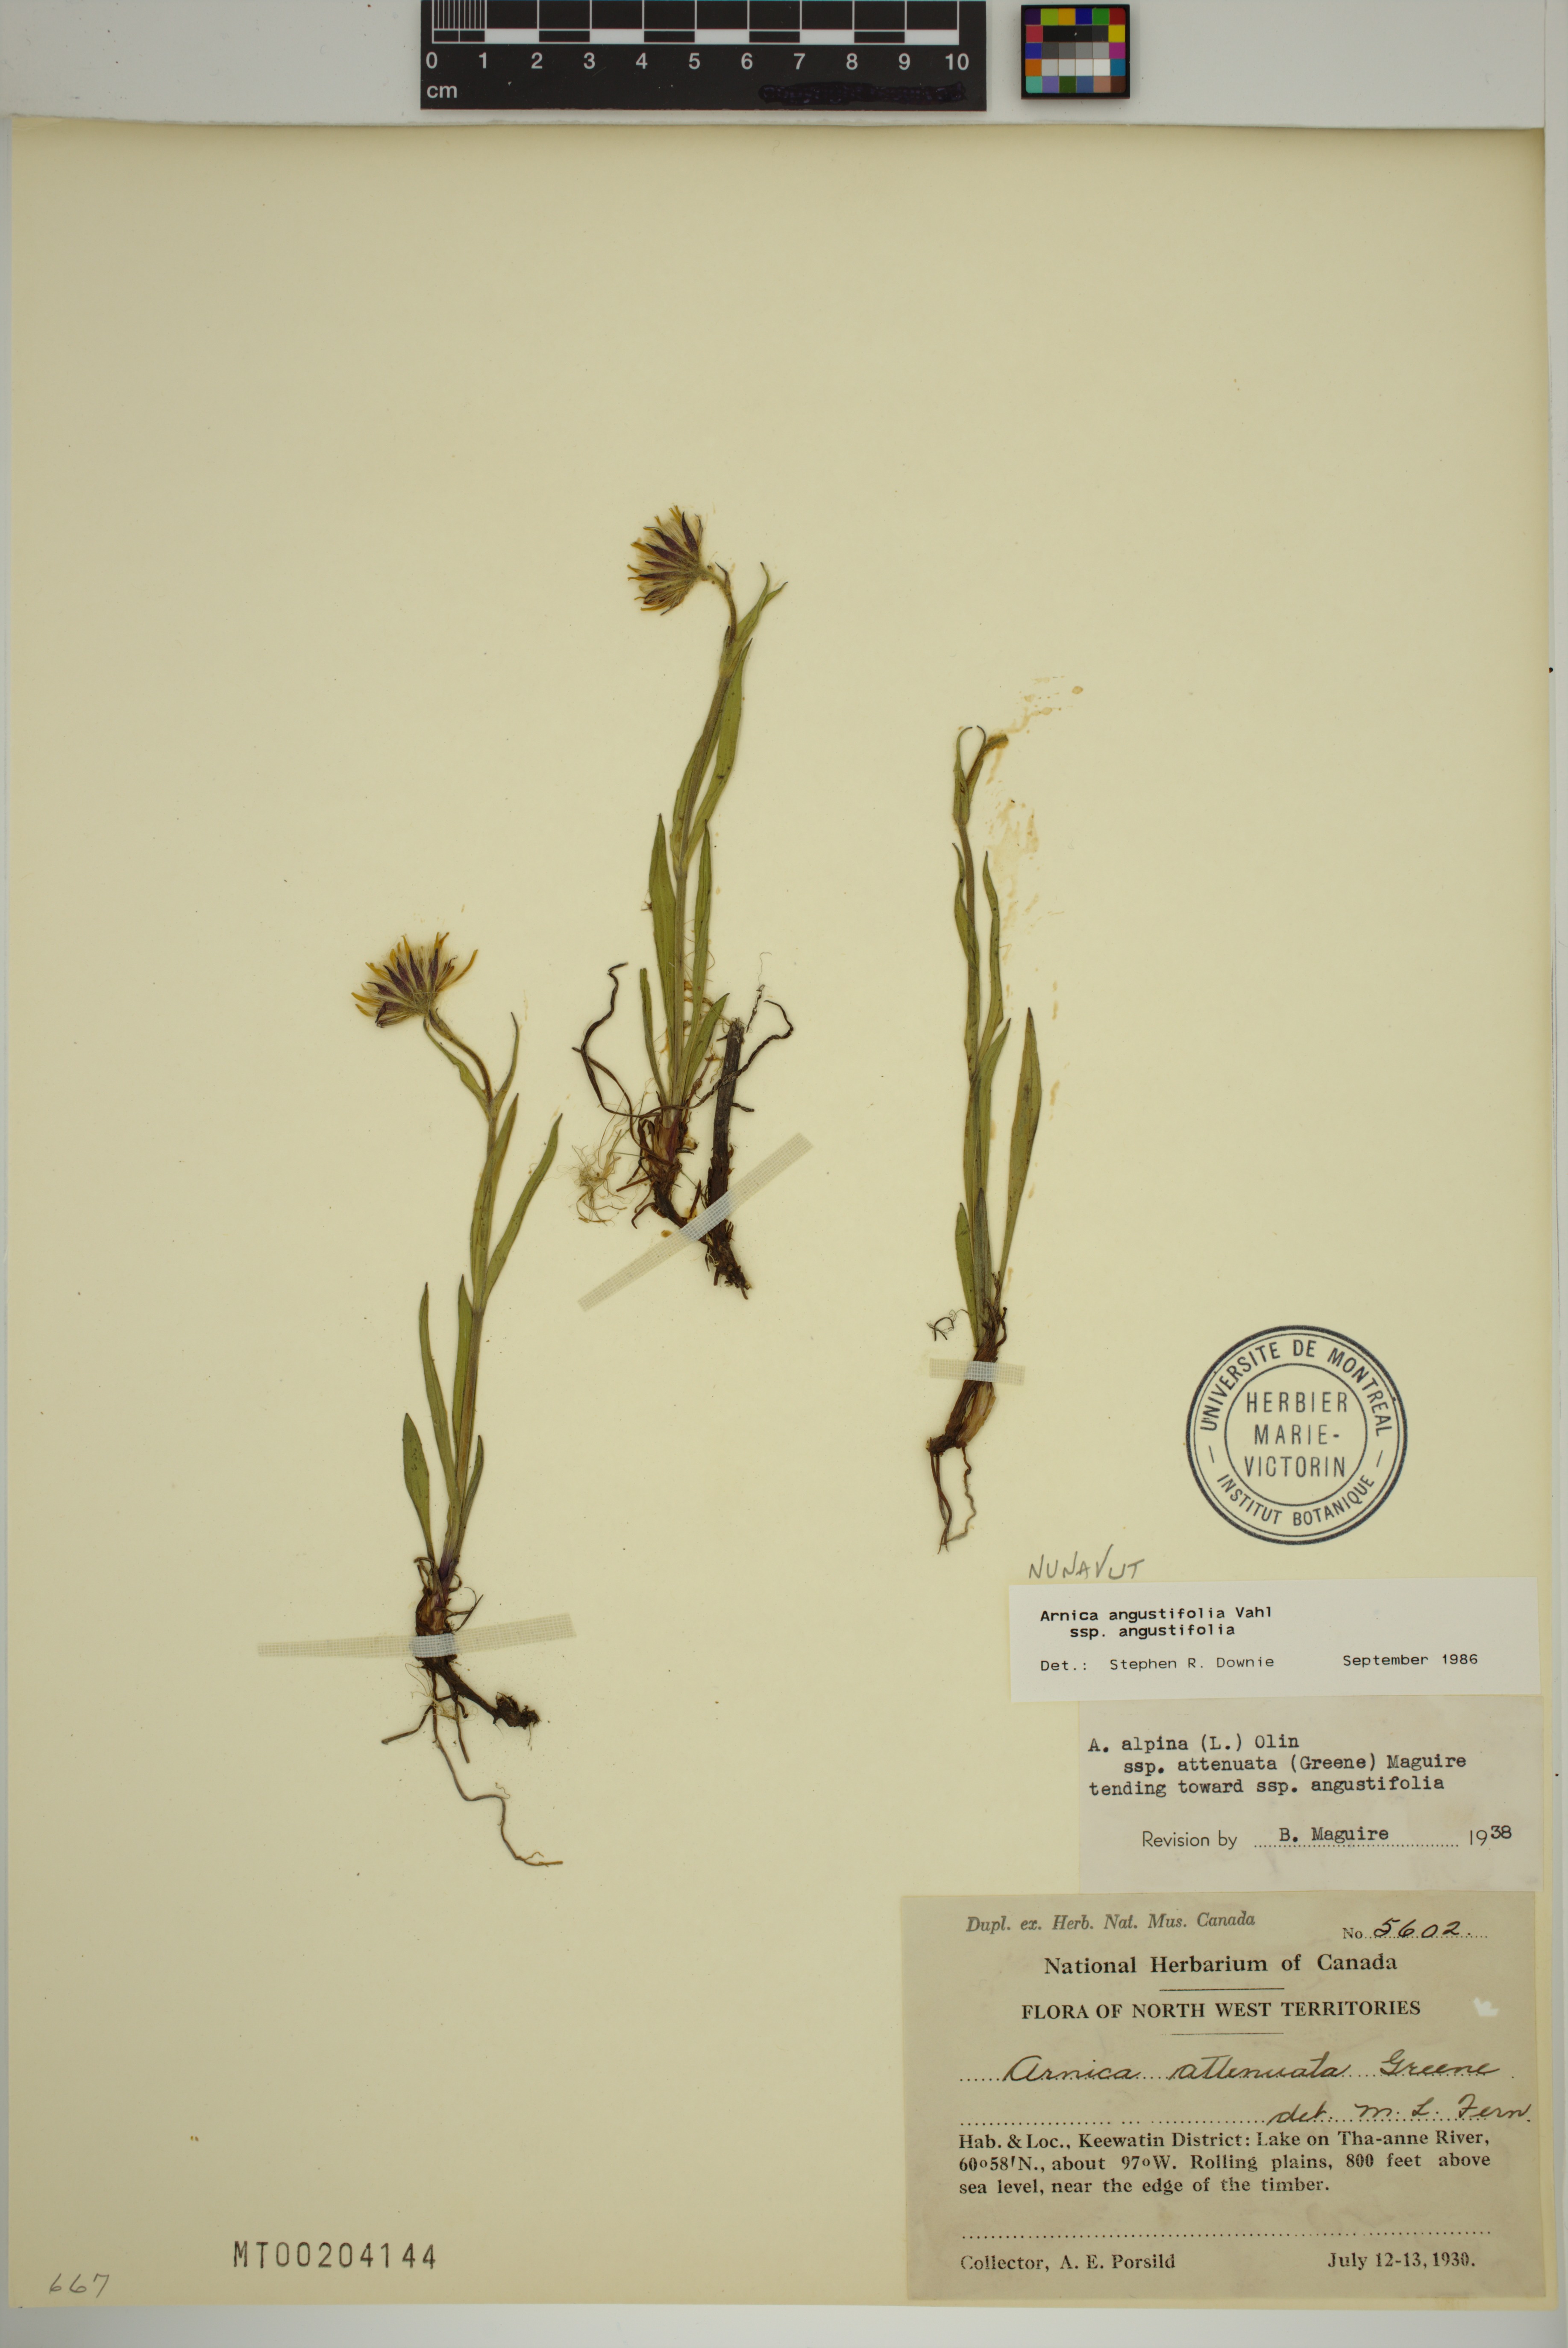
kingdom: Plantae
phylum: Tracheophyta
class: Magnoliopsida
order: Asterales
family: Asteraceae
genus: Arnica
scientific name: Arnica angustifolia
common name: Arctic arnica
